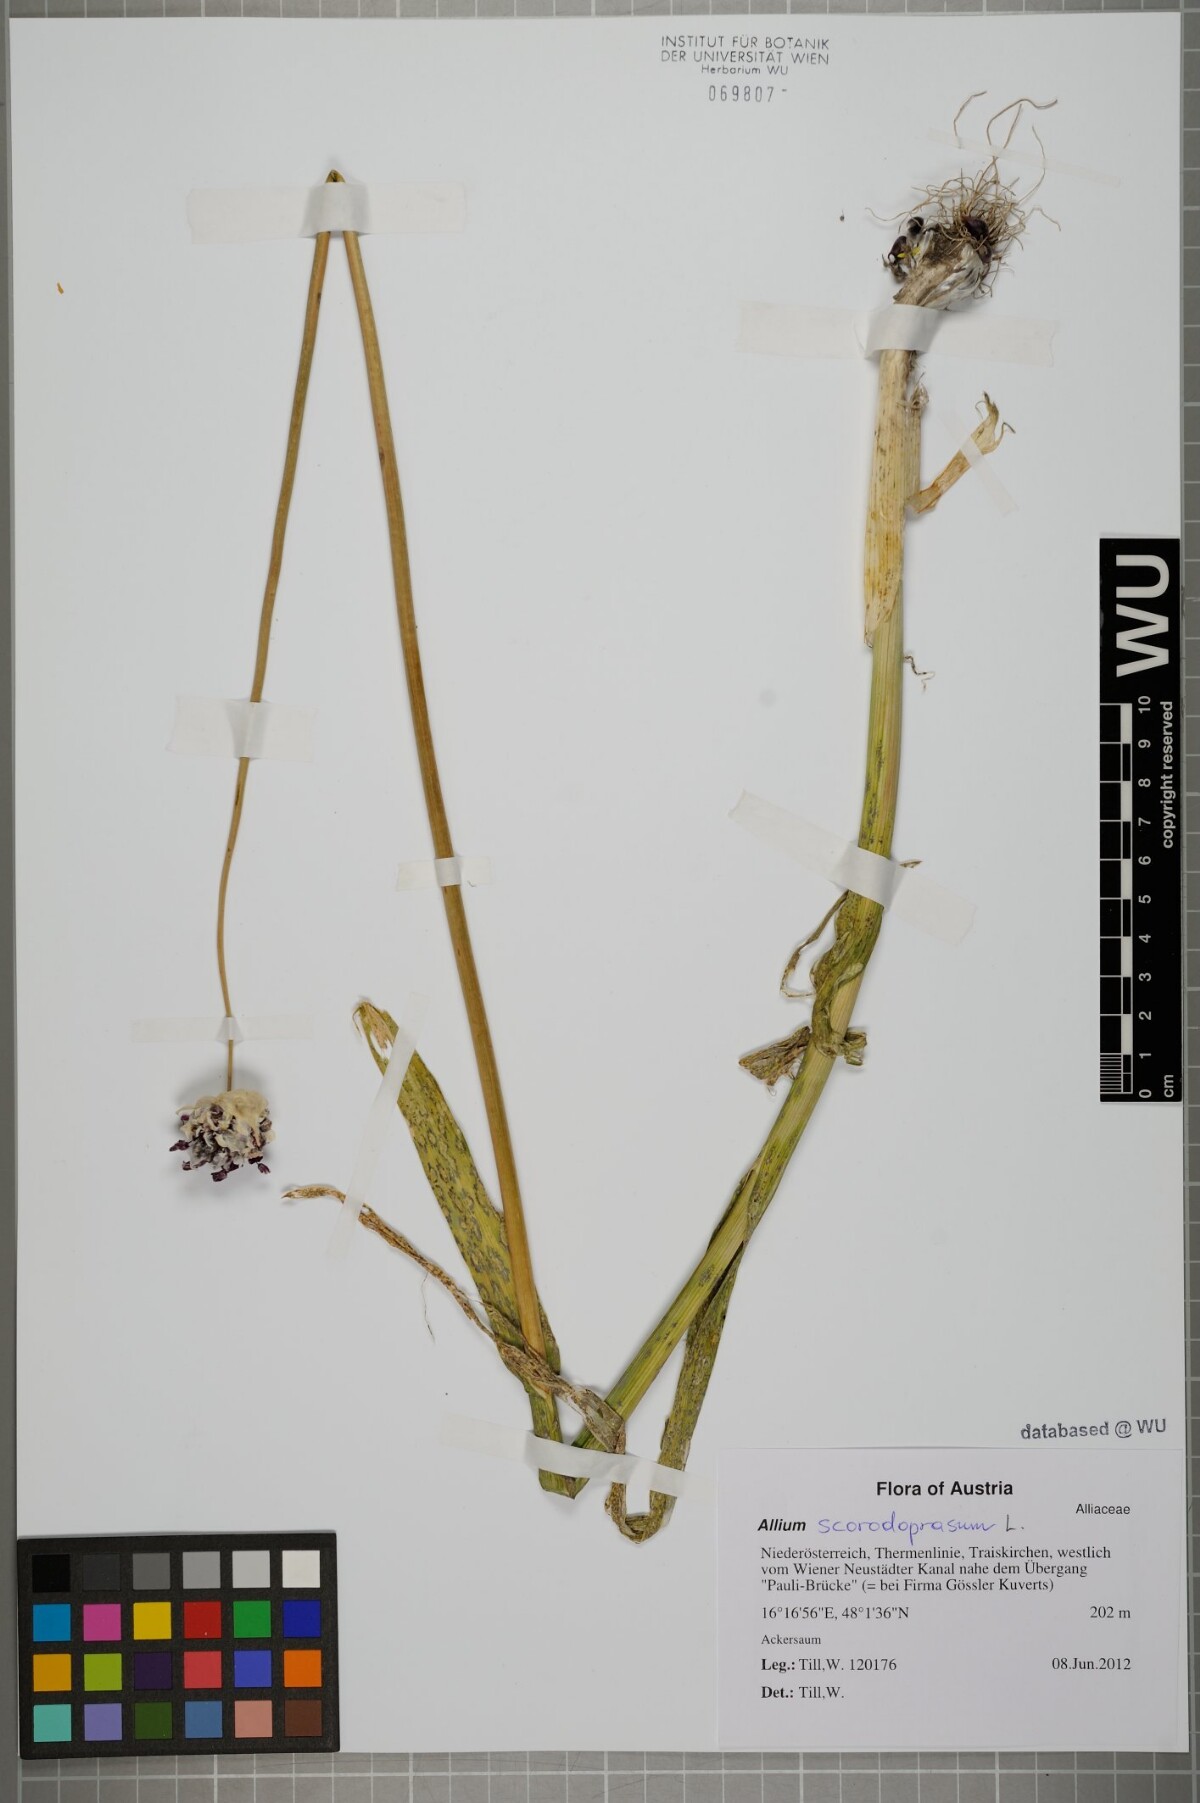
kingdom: Plantae
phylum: Tracheophyta
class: Liliopsida
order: Asparagales
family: Amaryllidaceae
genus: Allium
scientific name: Allium scorodoprasum
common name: Sand leek
